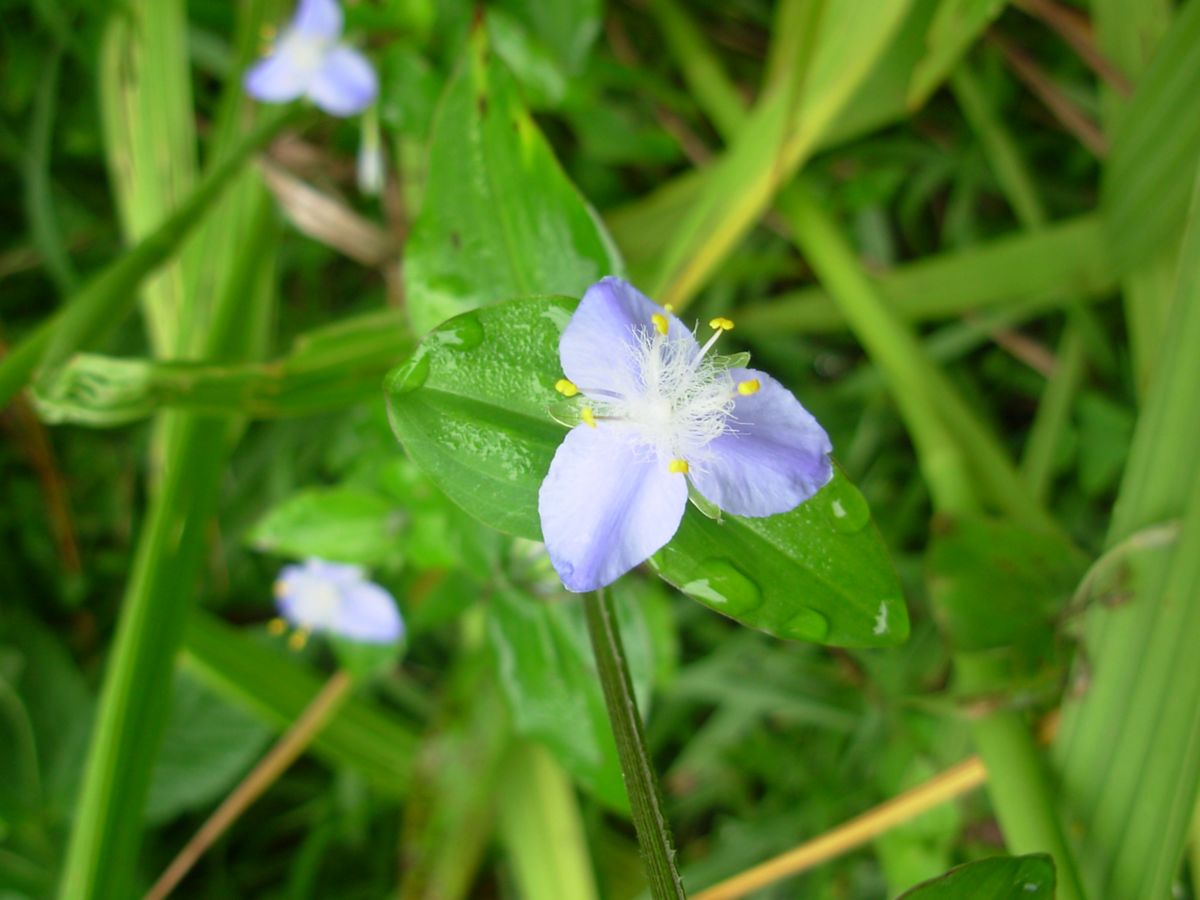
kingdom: Plantae
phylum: Tracheophyta
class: Liliopsida
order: Commelinales
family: Commelinaceae
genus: Elasis
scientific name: Elasis guatemalensis
